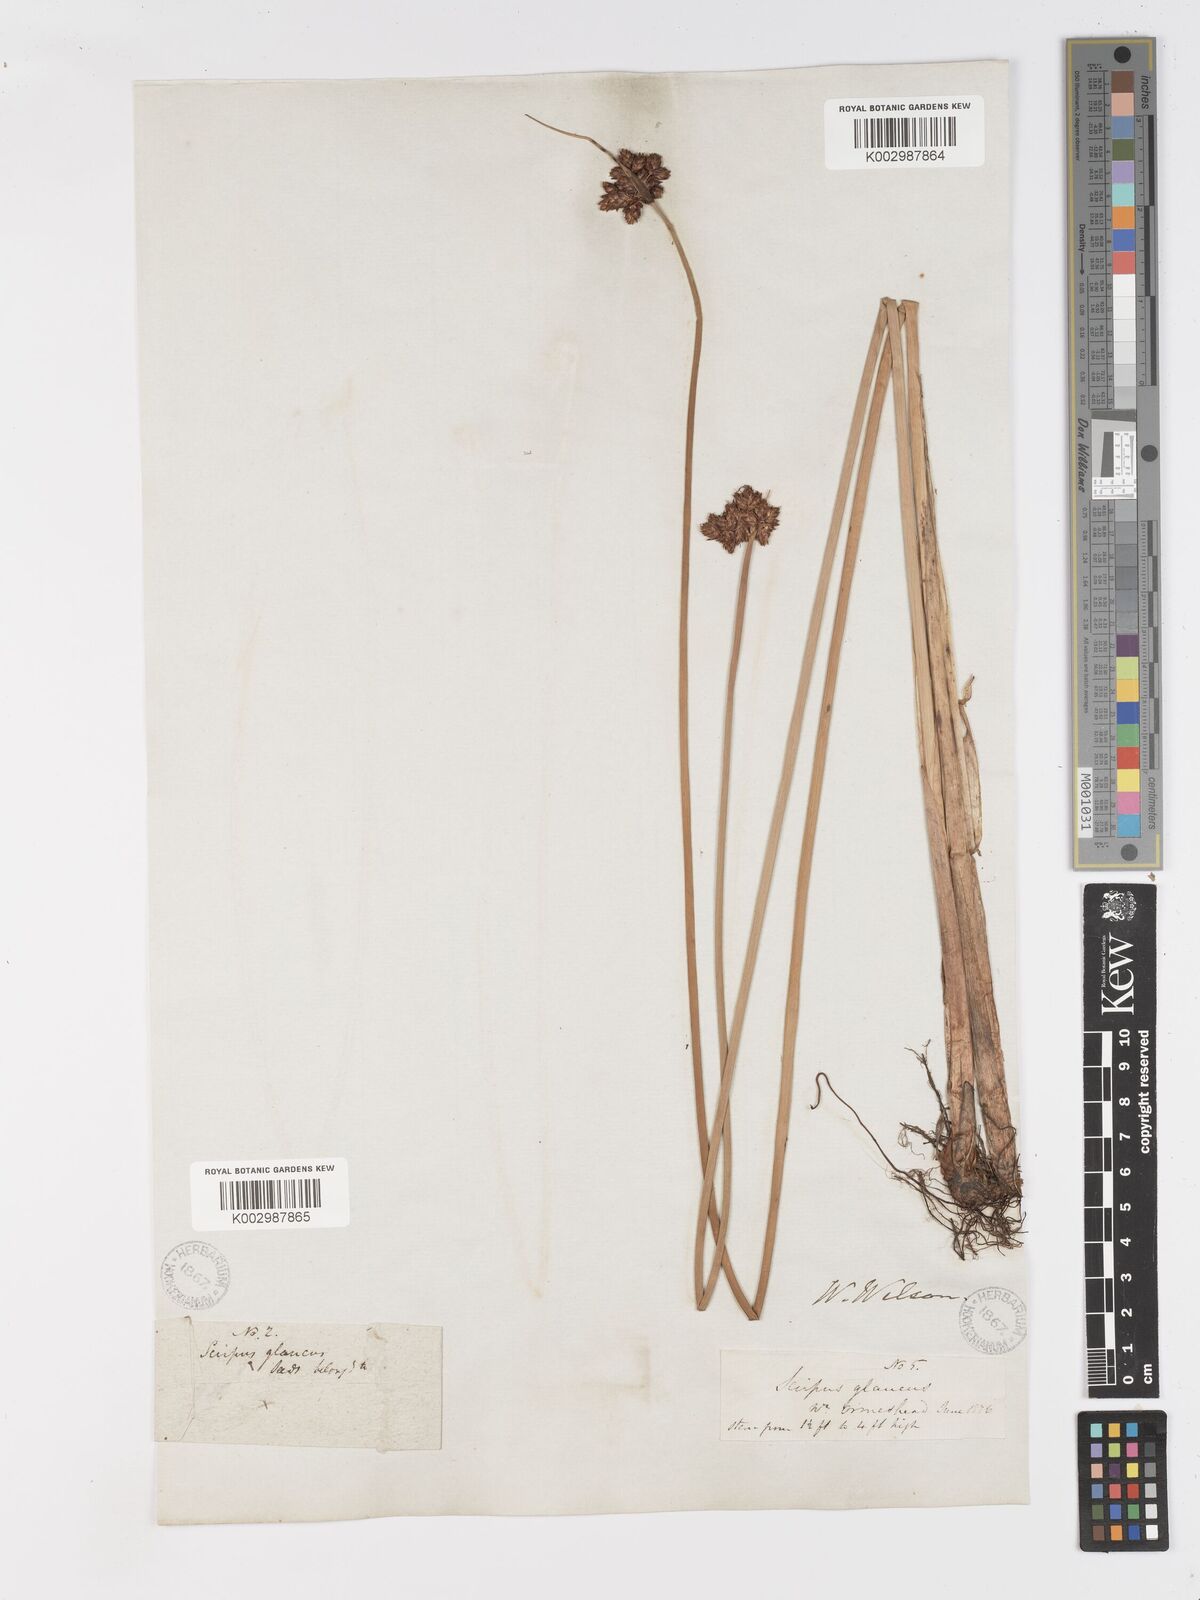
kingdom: Plantae
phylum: Tracheophyta
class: Liliopsida
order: Poales
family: Cyperaceae
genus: Schoenoplectus
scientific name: Schoenoplectus tabernaemontani
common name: Grey club-rush
